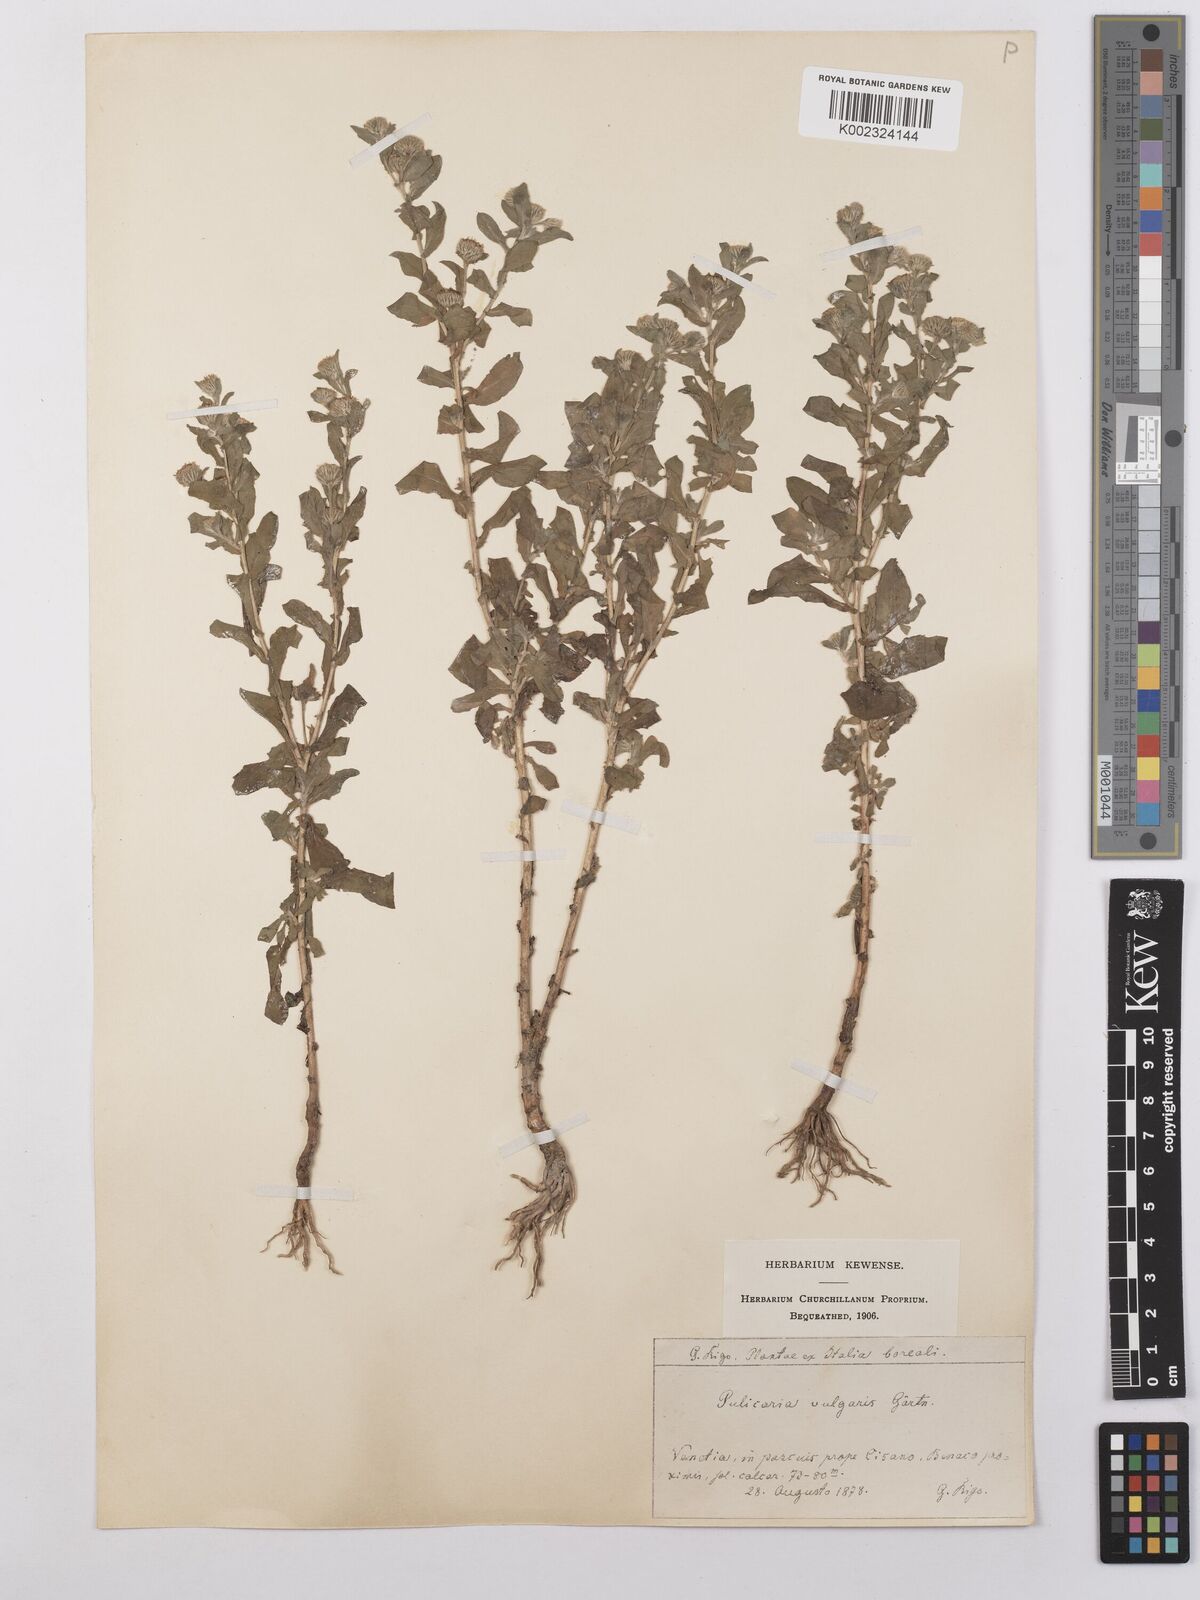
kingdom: Plantae
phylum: Tracheophyta
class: Magnoliopsida
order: Asterales
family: Asteraceae
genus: Pulicaria
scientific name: Pulicaria vulgaris
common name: Small fleabane
